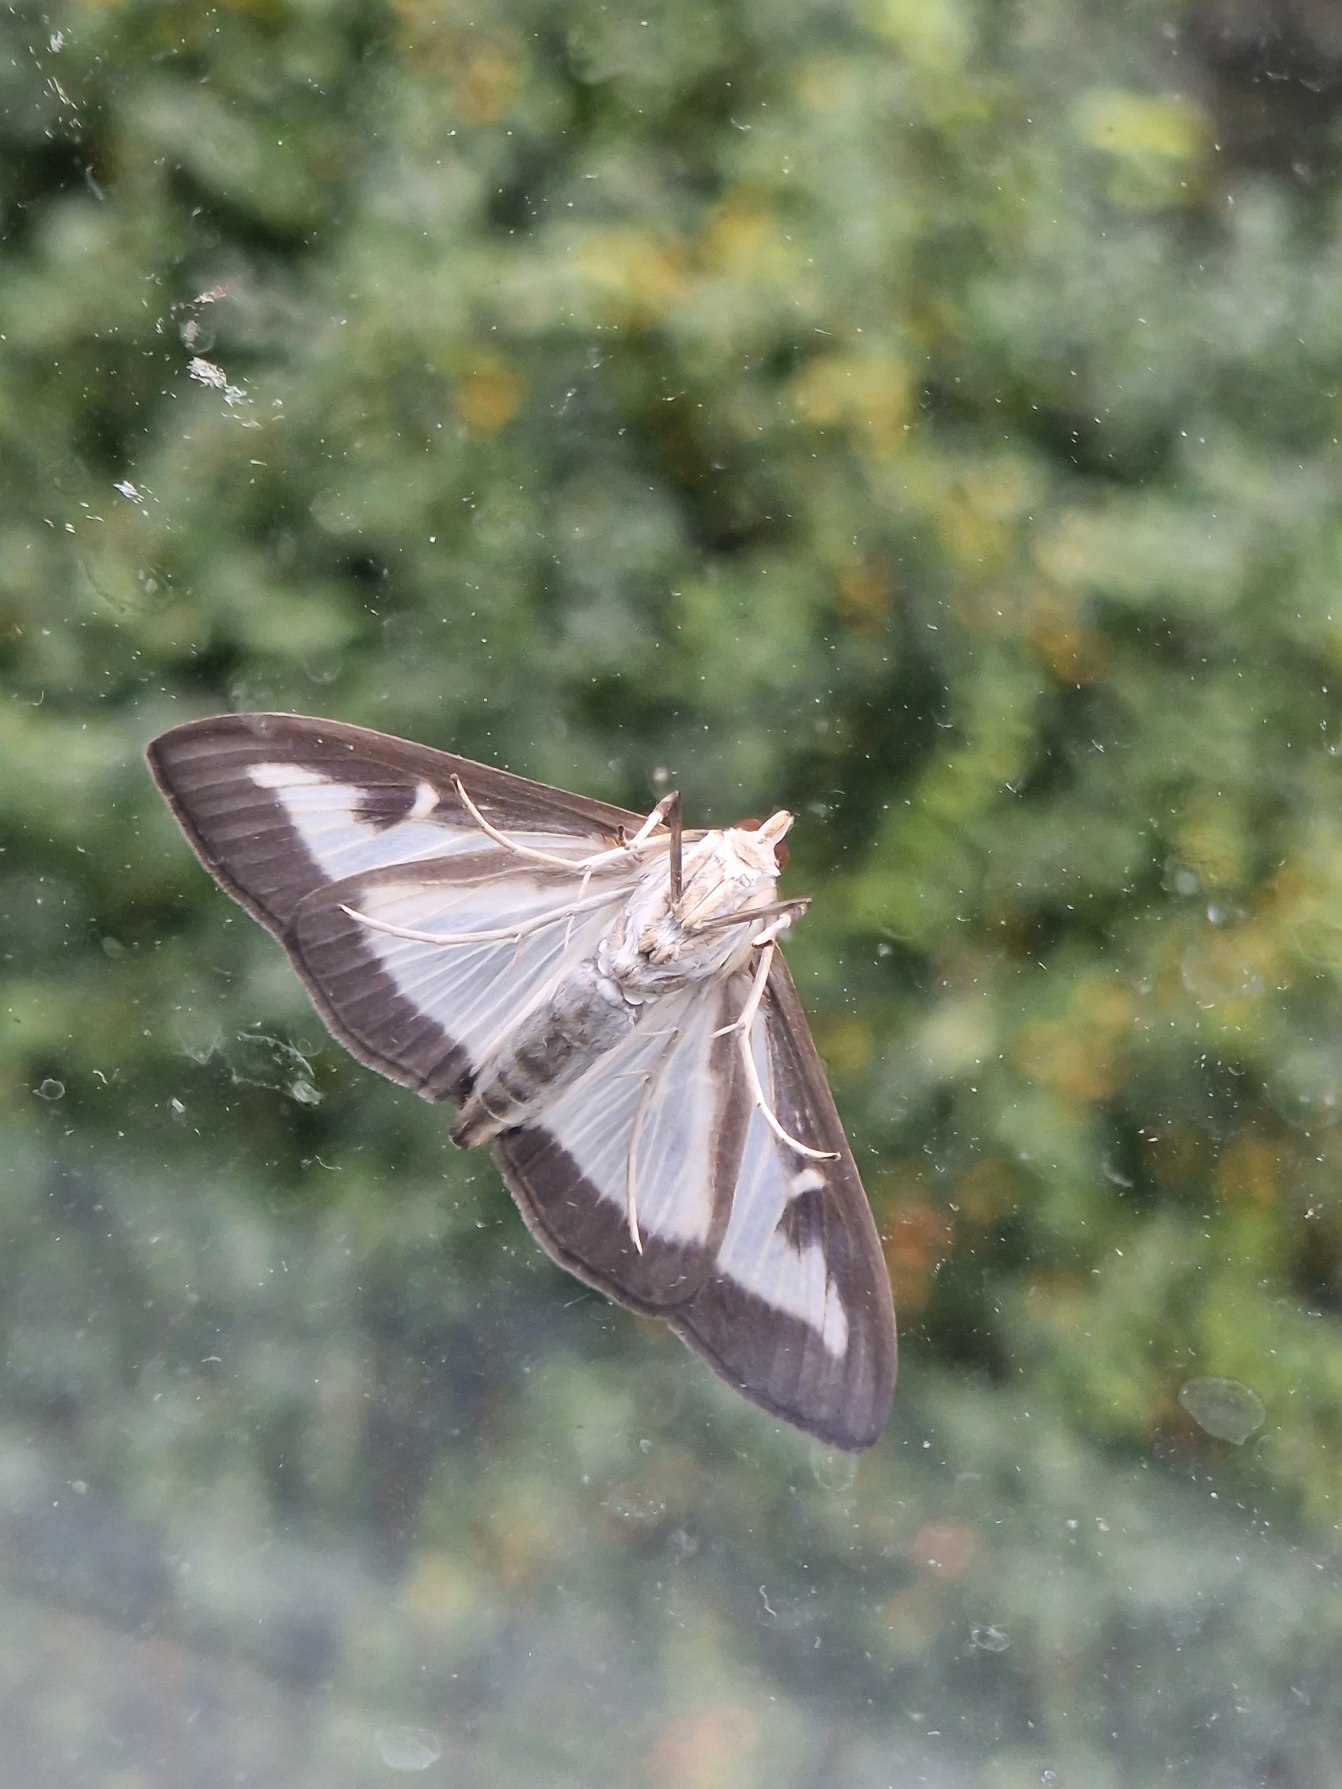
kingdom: Animalia
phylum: Arthropoda
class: Insecta
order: Lepidoptera
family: Crambidae
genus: Cydalima
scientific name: Cydalima perspectalis
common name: Buksbomhalvmøl
